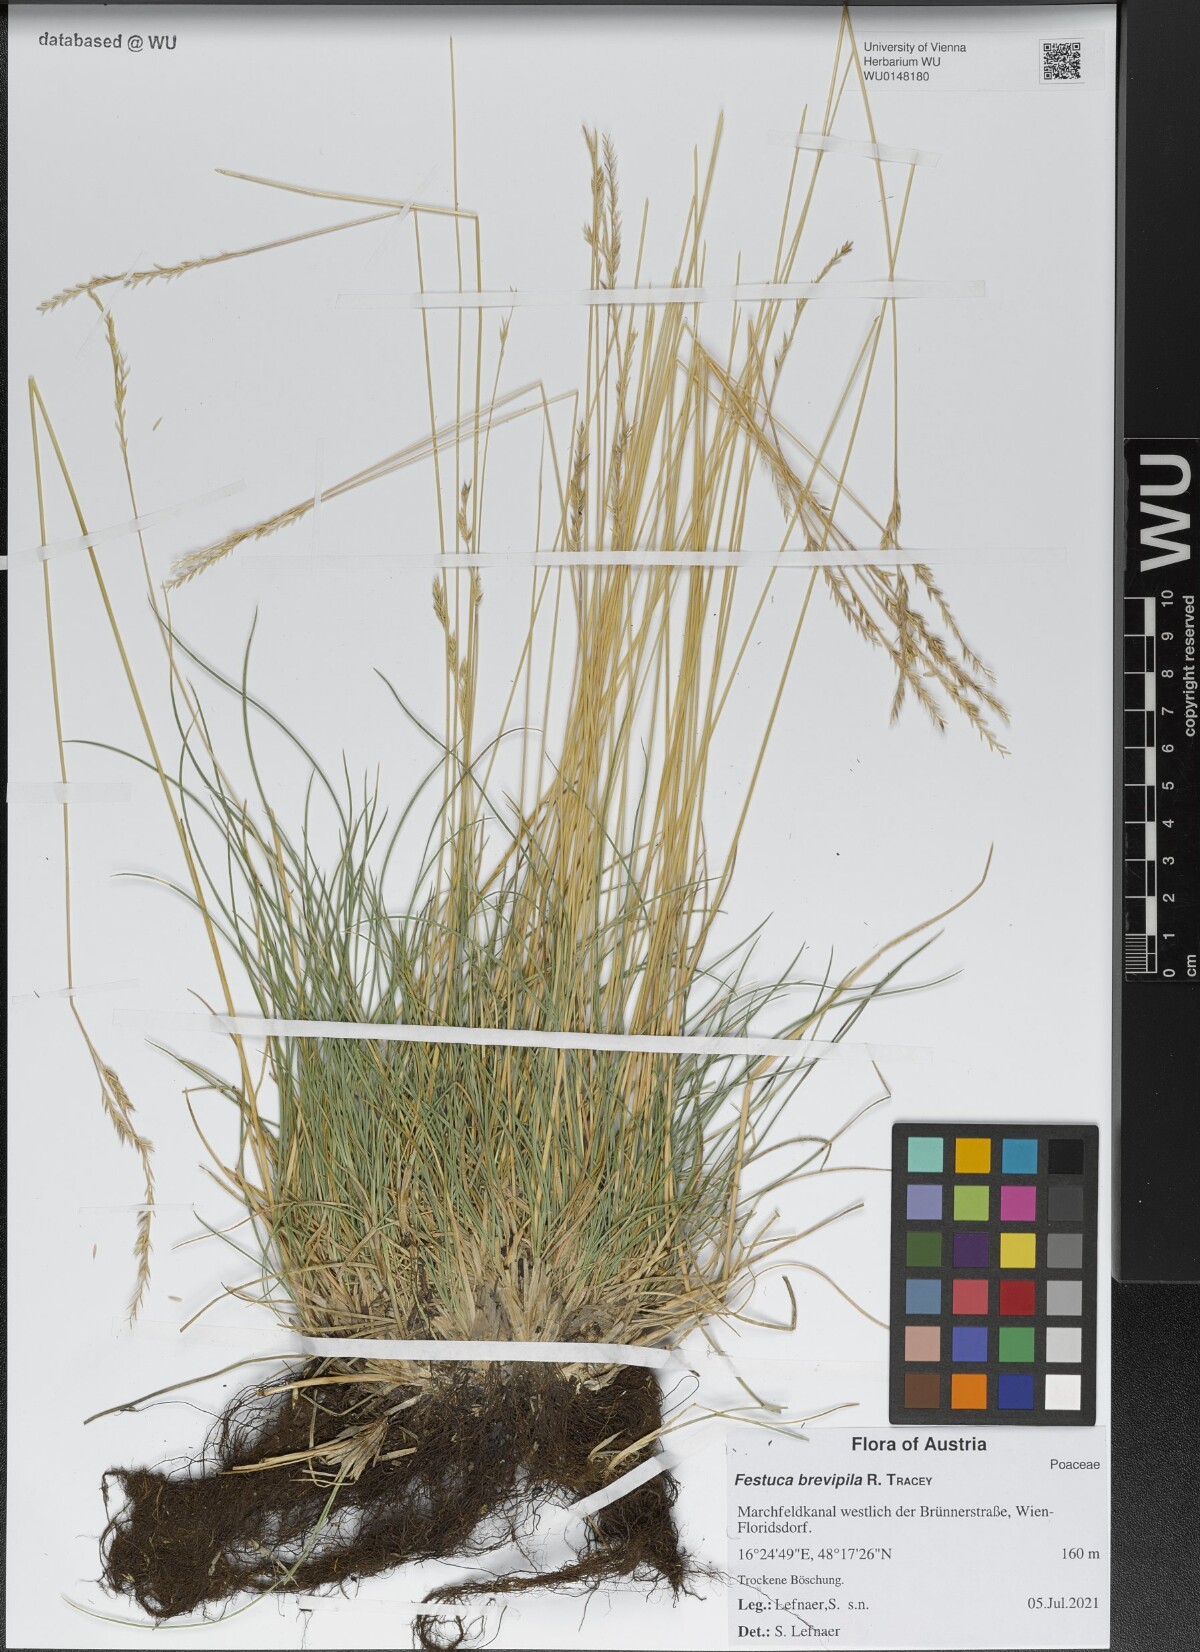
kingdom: Plantae
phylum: Tracheophyta
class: Liliopsida
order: Poales
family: Poaceae
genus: Festuca
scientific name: Festuca trachyphylla
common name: Hard fescue
